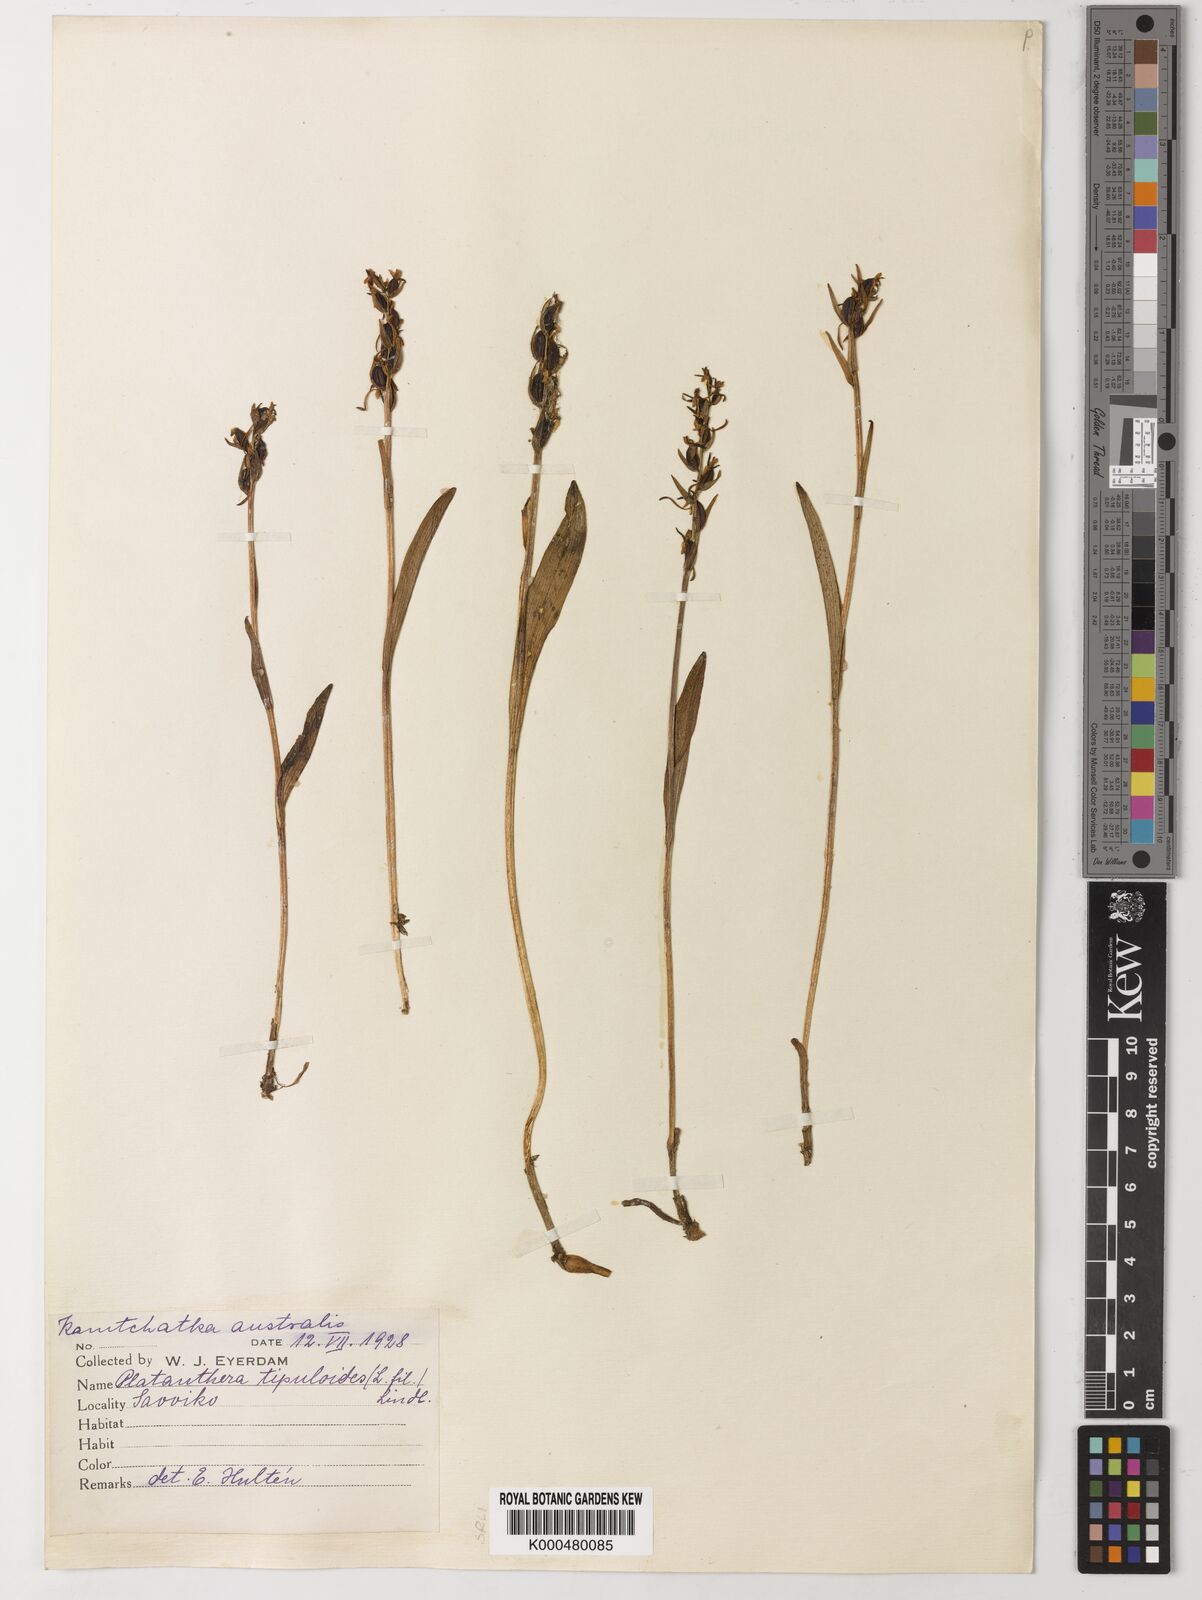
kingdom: Plantae
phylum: Tracheophyta
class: Liliopsida
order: Asparagales
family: Orchidaceae
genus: Platanthera
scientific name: Platanthera tipuloides
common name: Aleutian bog orchid
